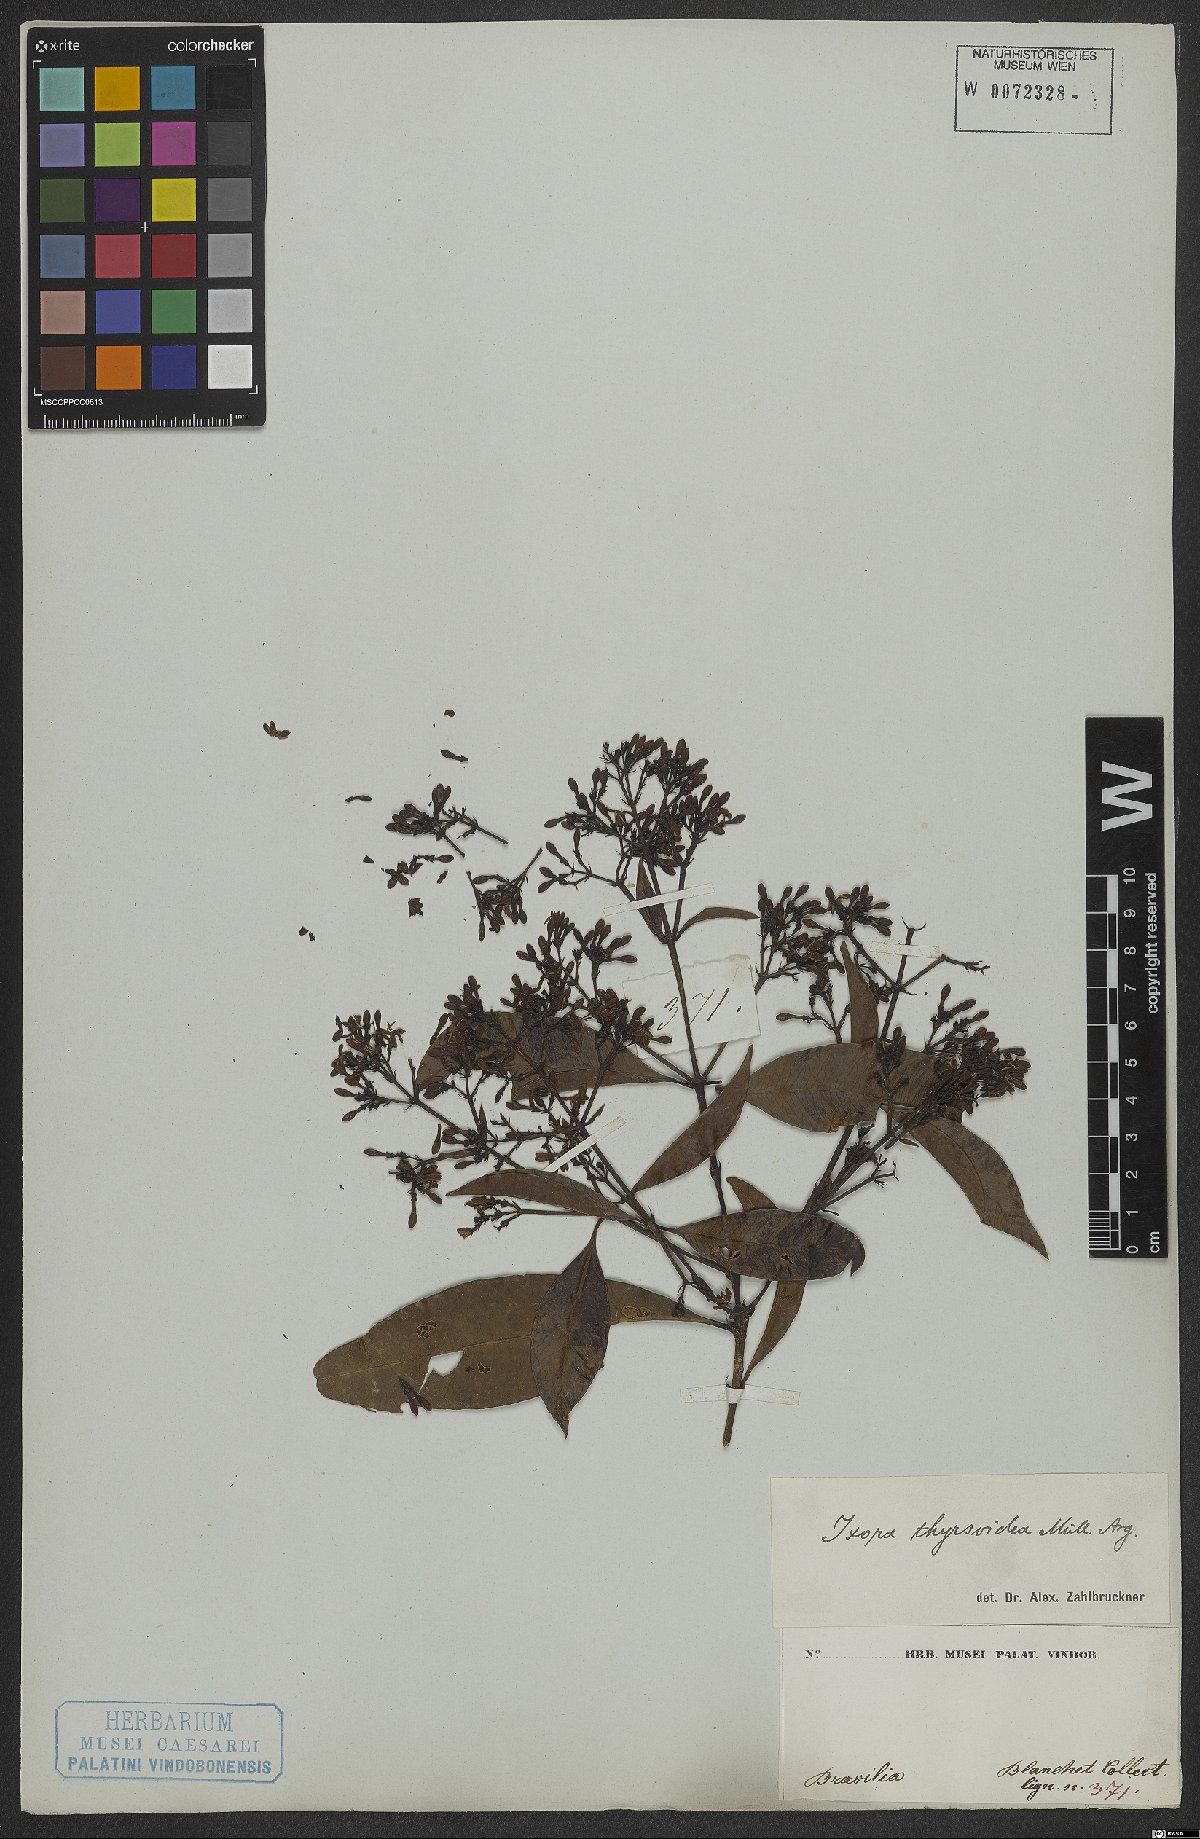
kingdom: Plantae
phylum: Tracheophyta
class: Magnoliopsida
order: Gentianales
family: Rubiaceae
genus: Ixora
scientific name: Ixora brevifolia
